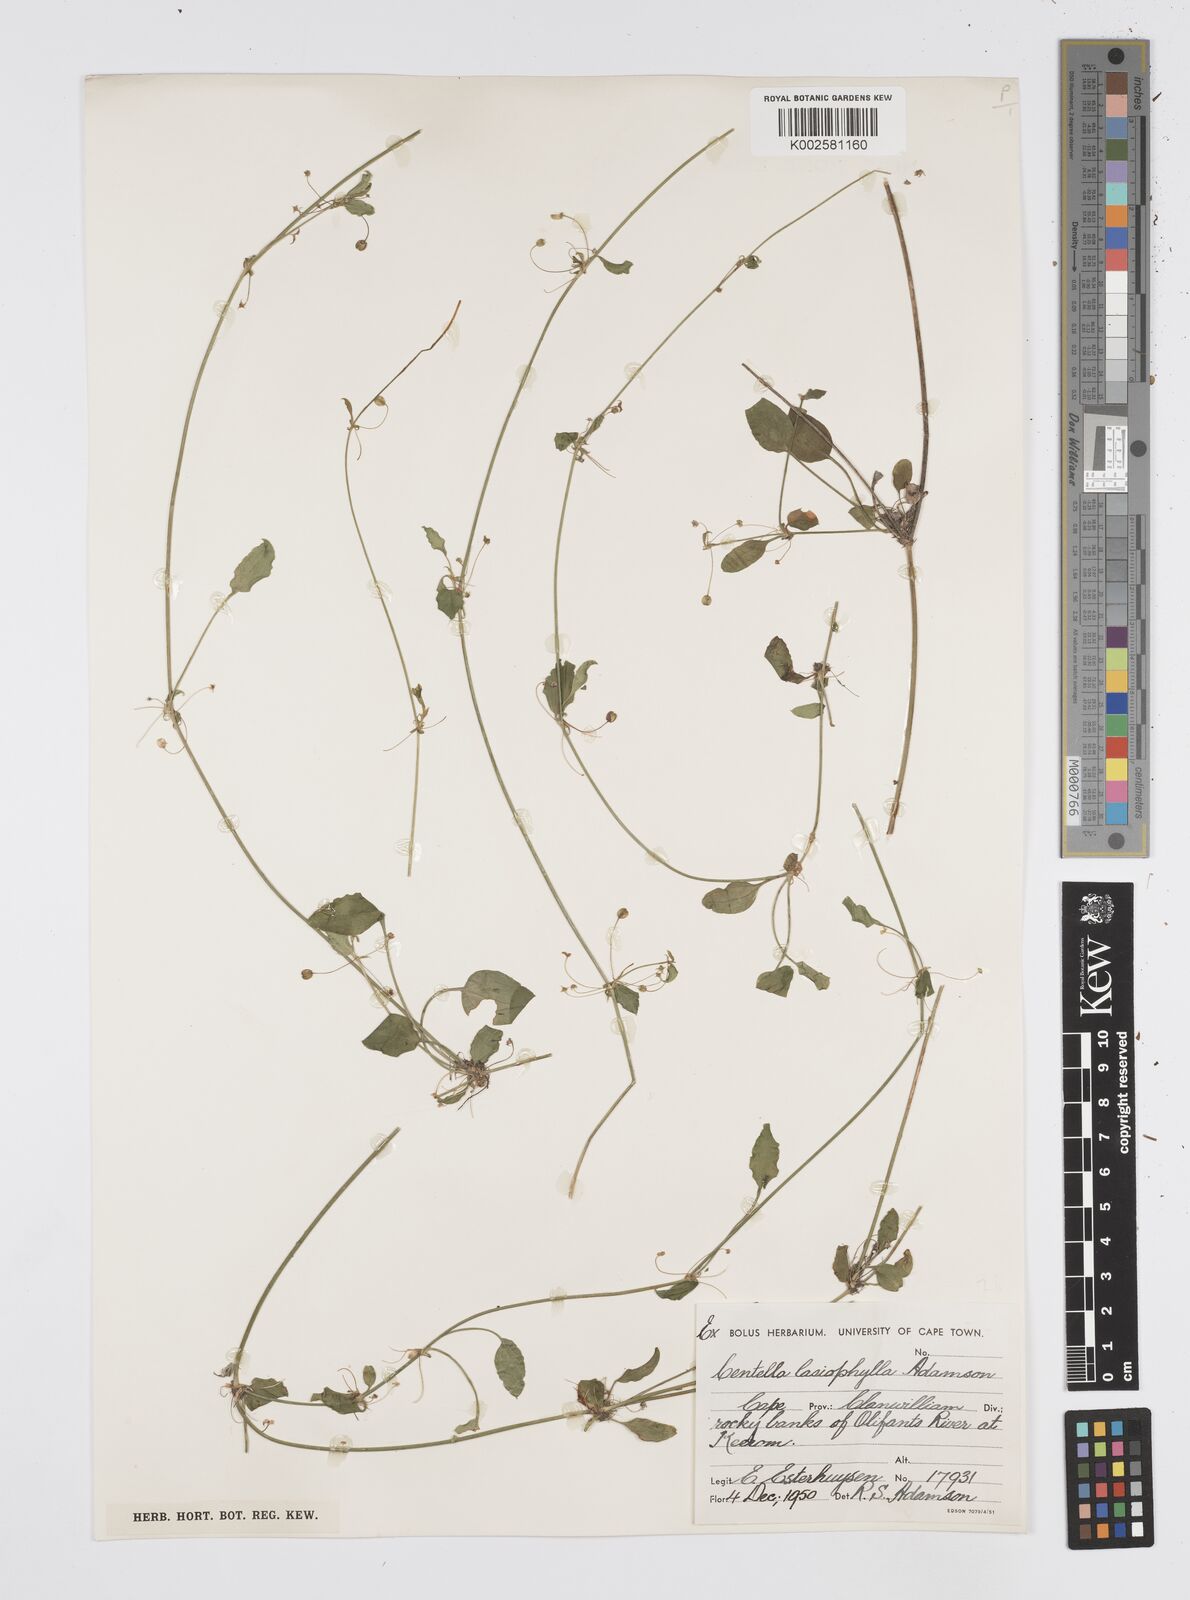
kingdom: Plantae
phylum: Tracheophyta
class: Magnoliopsida
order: Apiales
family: Apiaceae
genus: Centella
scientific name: Centella lasiophylla
